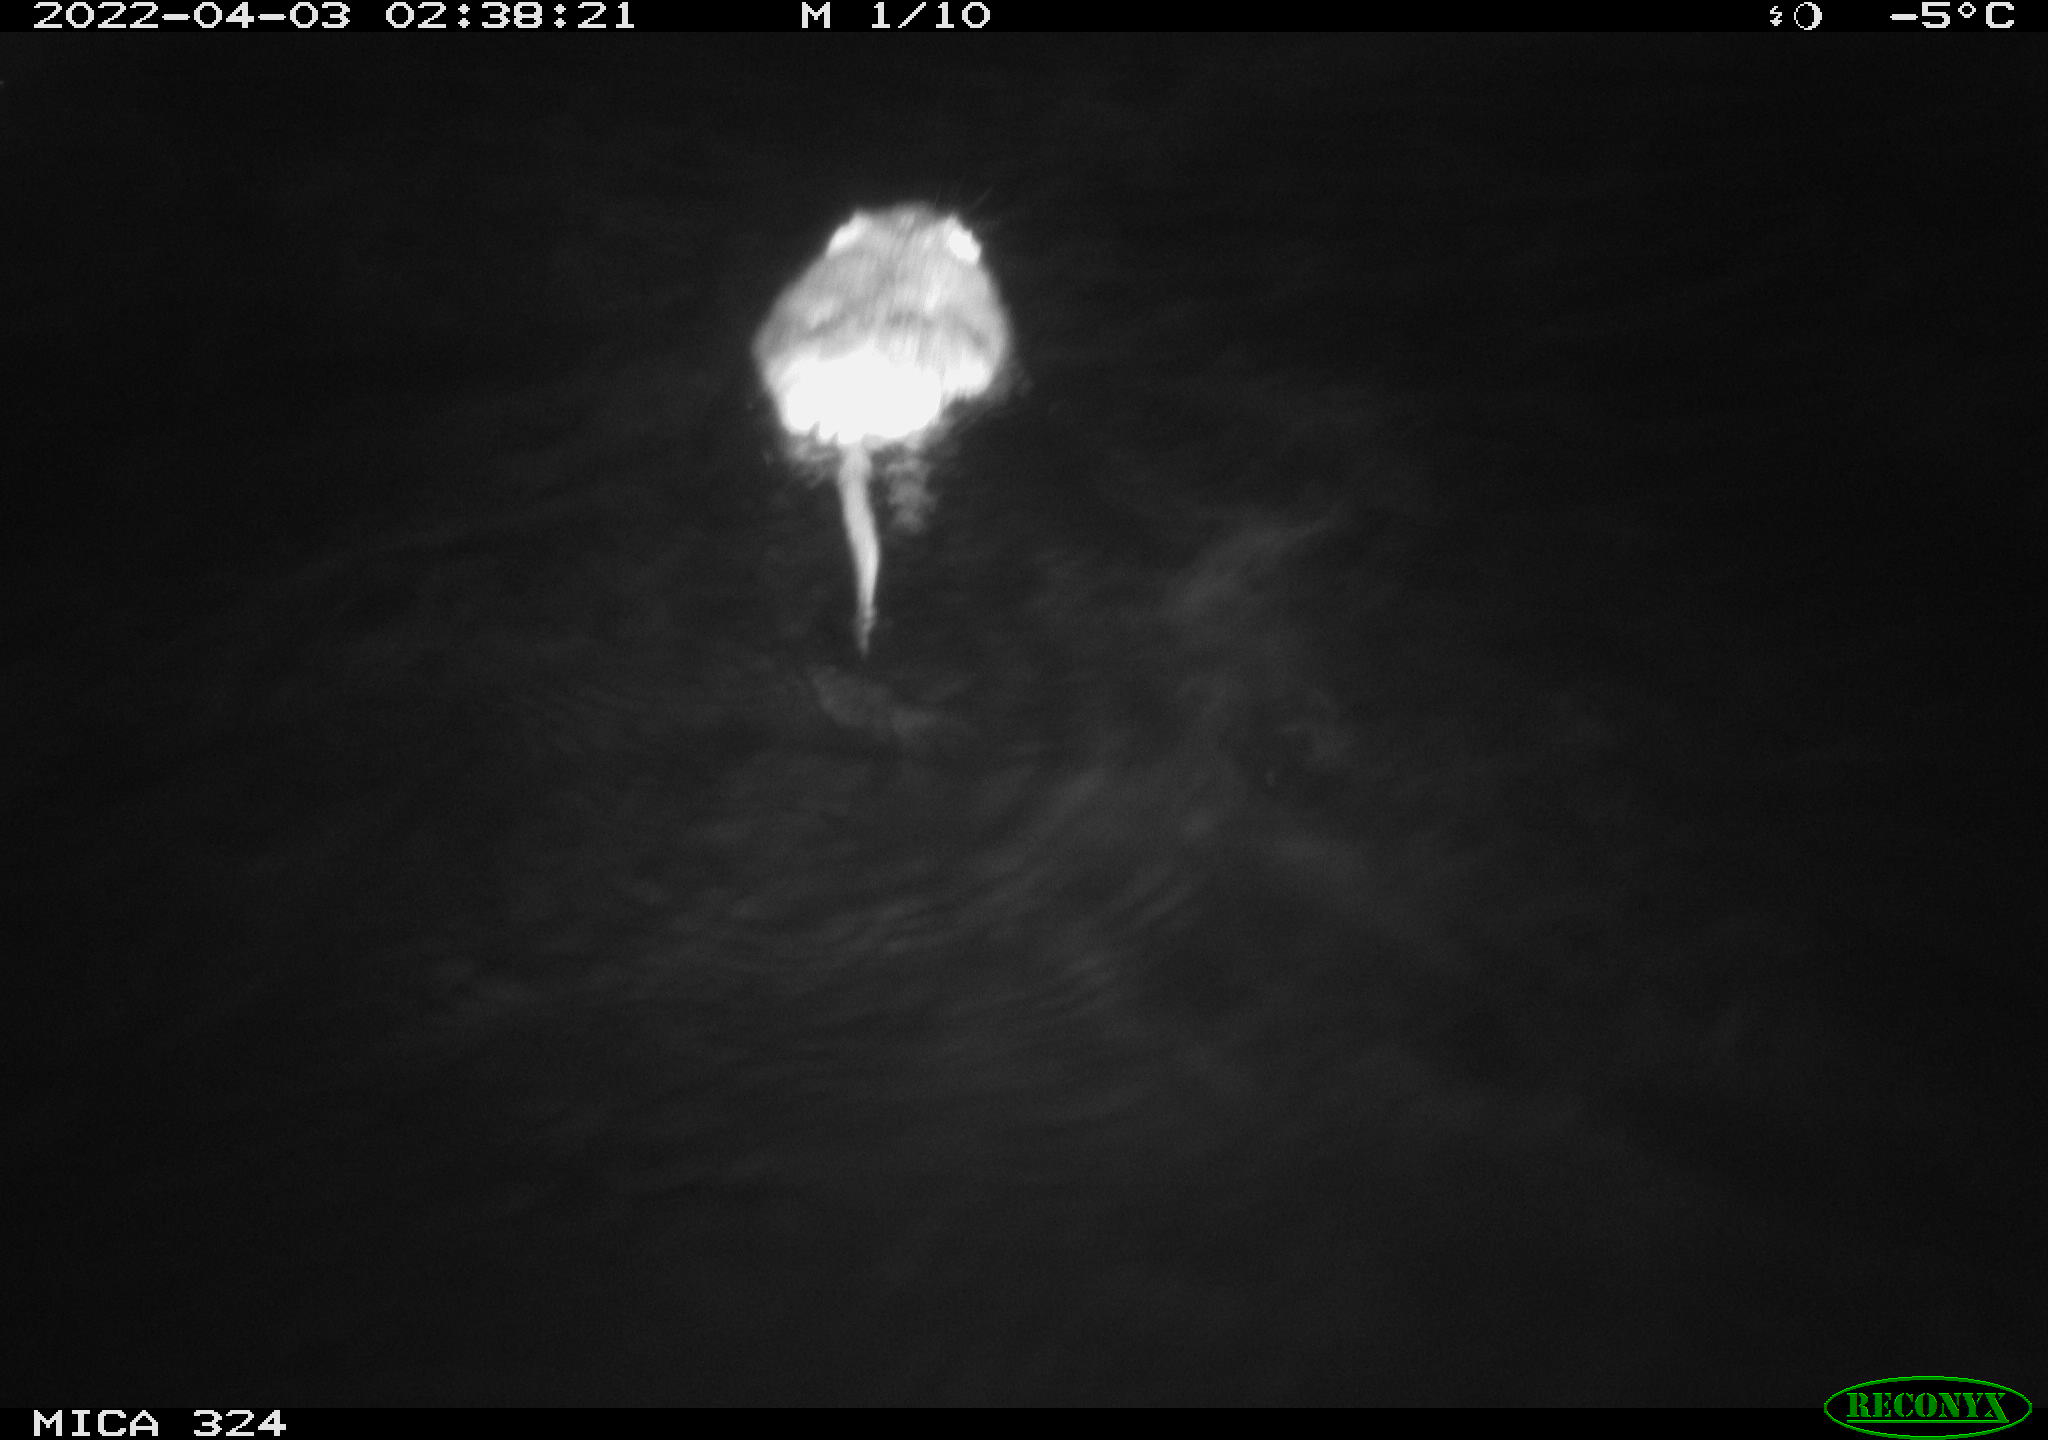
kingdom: Animalia
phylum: Chordata
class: Mammalia
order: Rodentia
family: Cricetidae
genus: Ondatra
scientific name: Ondatra zibethicus
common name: Muskrat
